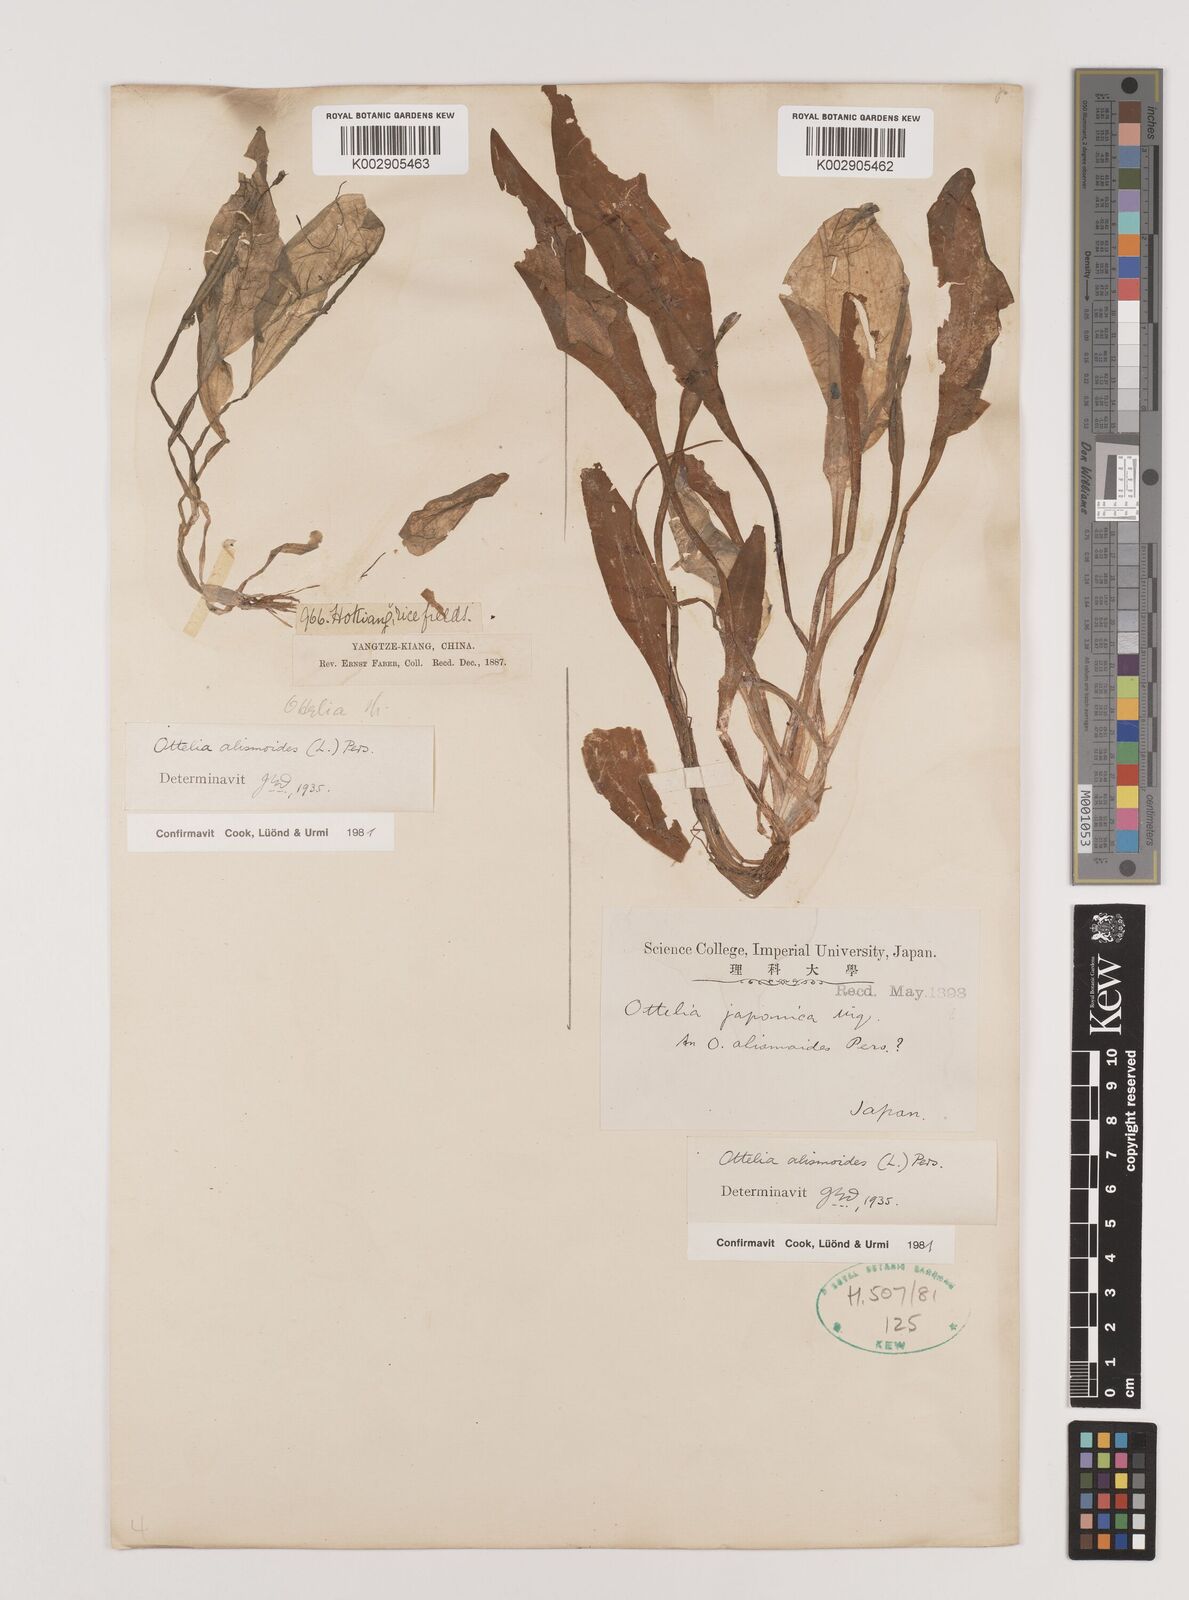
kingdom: Plantae
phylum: Tracheophyta
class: Liliopsida
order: Alismatales
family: Hydrocharitaceae
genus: Ottelia
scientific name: Ottelia alismoides
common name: Duck-lettuce
